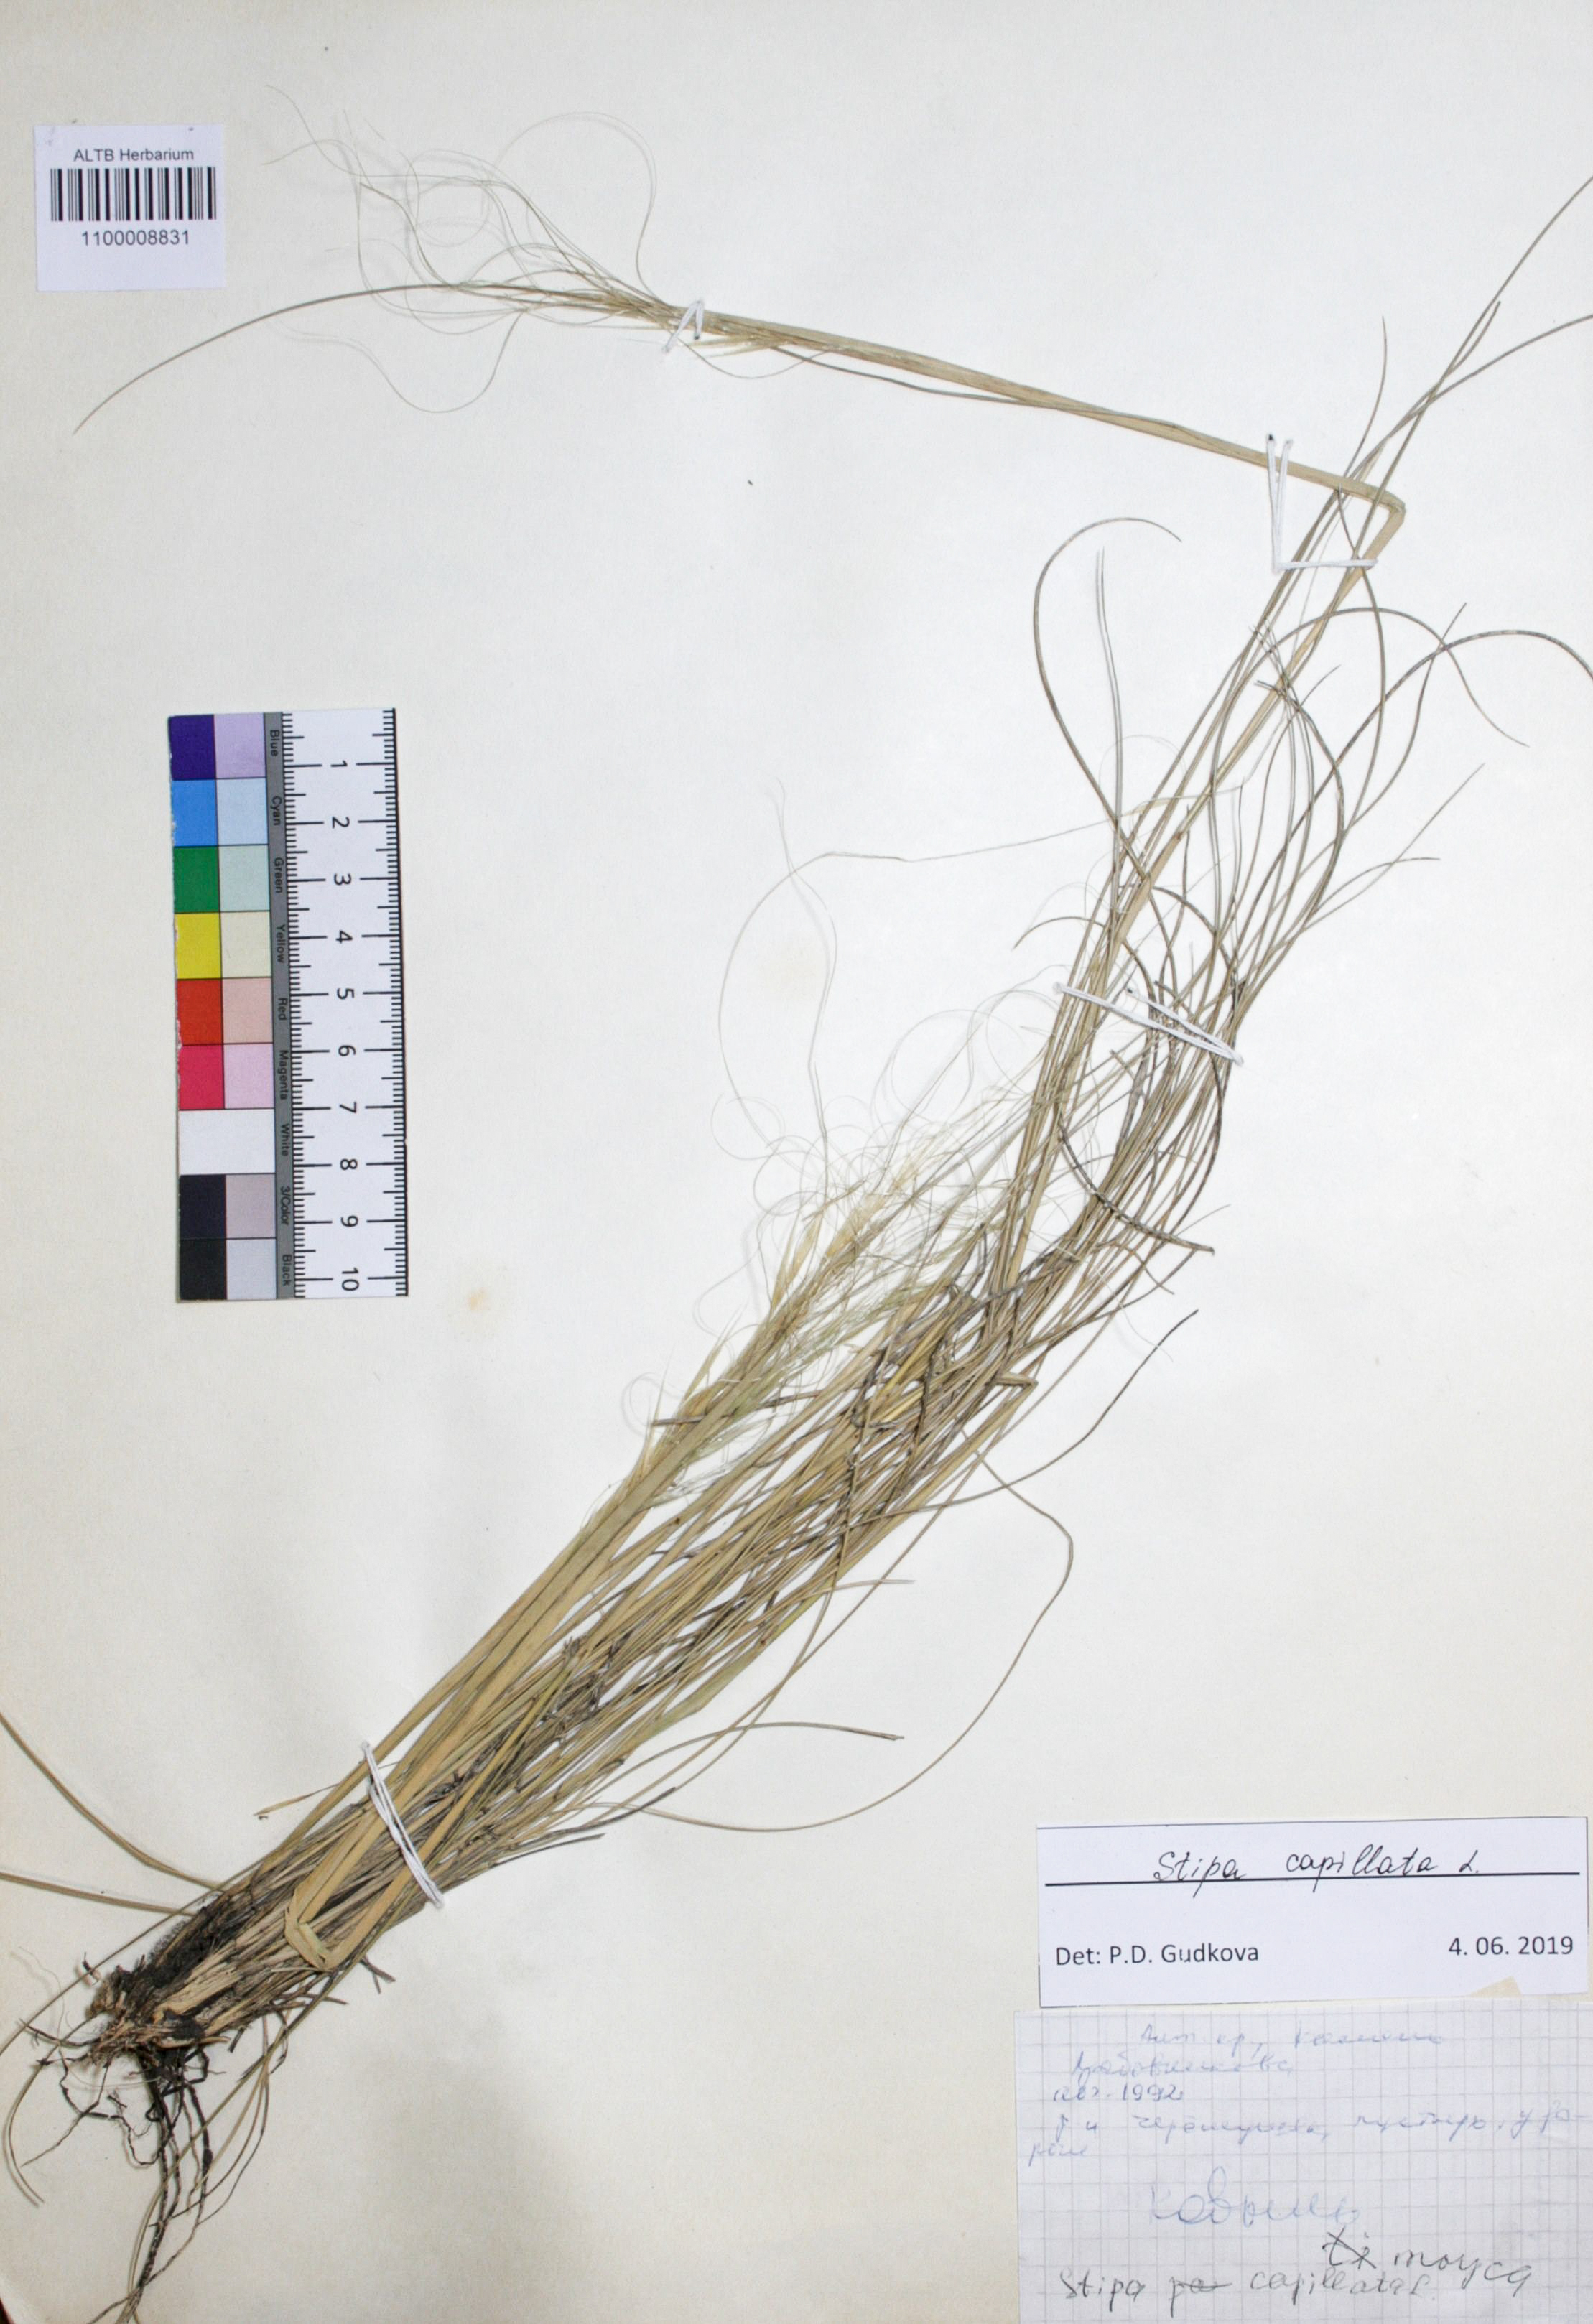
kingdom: Plantae
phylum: Tracheophyta
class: Magnoliopsida
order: Asterales
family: Asteraceae
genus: Tripleurospermum
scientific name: Tripleurospermum inodorum
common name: Scentless mayweed
